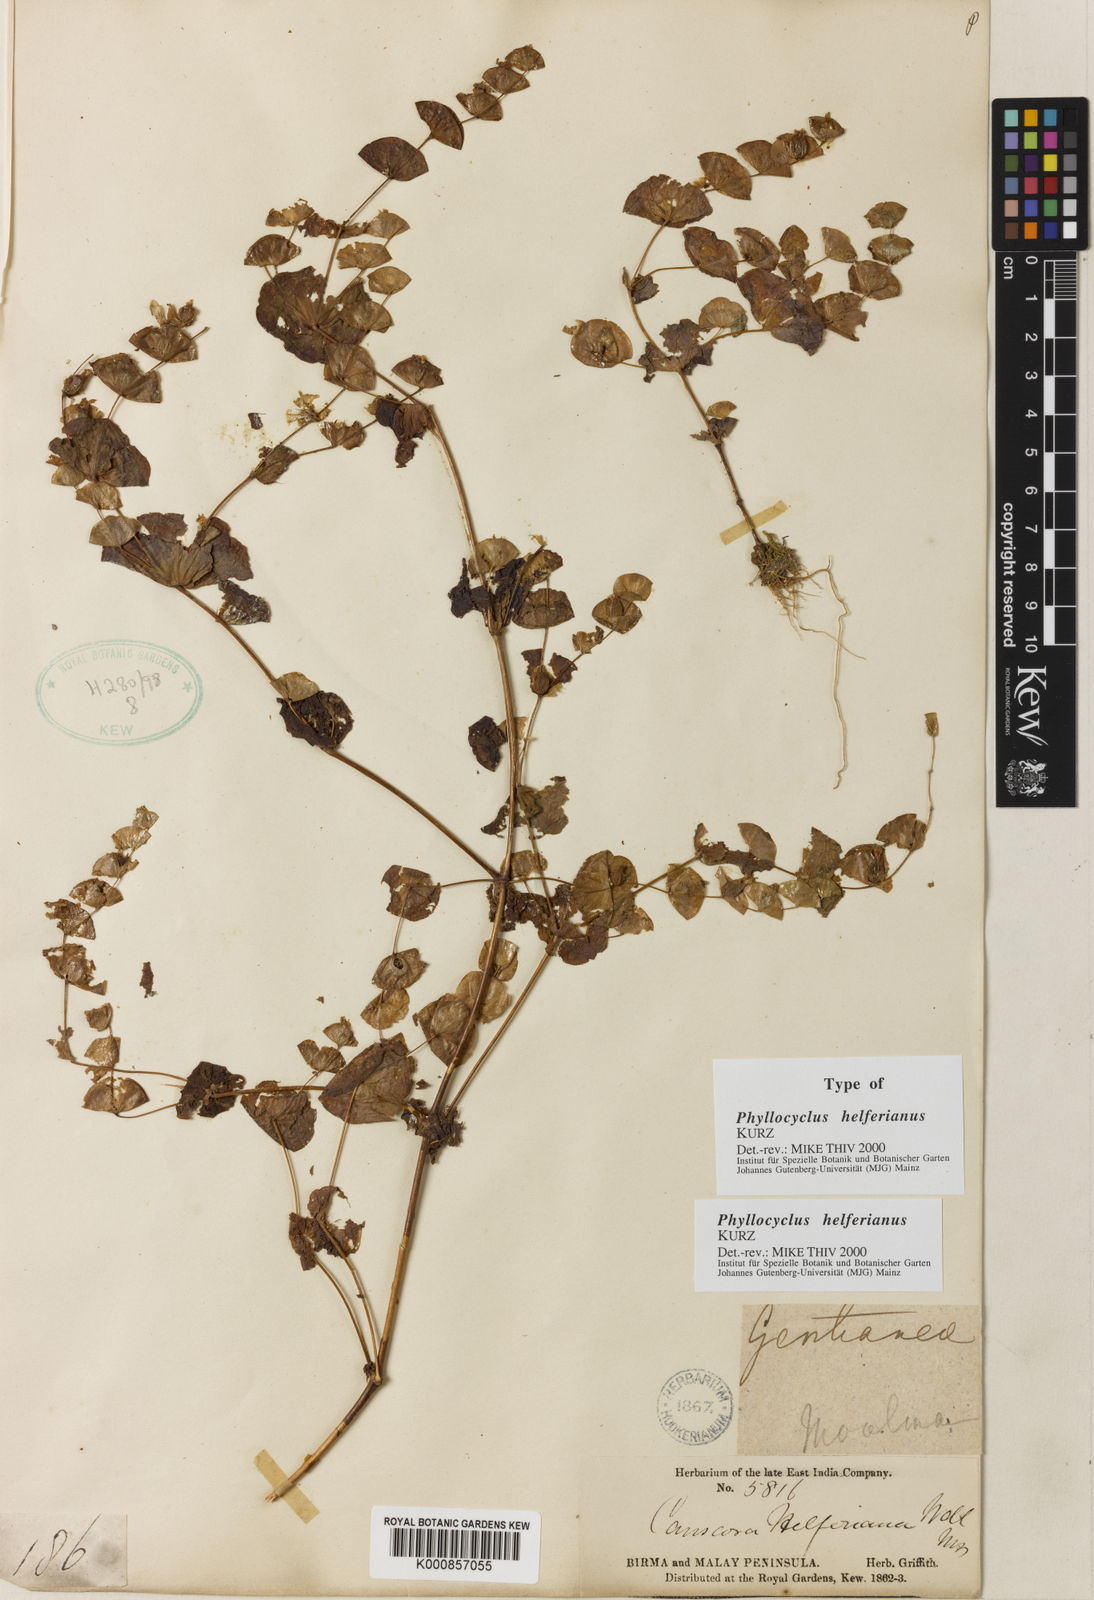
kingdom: Plantae
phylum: Tracheophyta
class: Magnoliopsida
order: Gentianales
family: Gentianaceae
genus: Phyllocyclus
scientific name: Phyllocyclus helferianus
